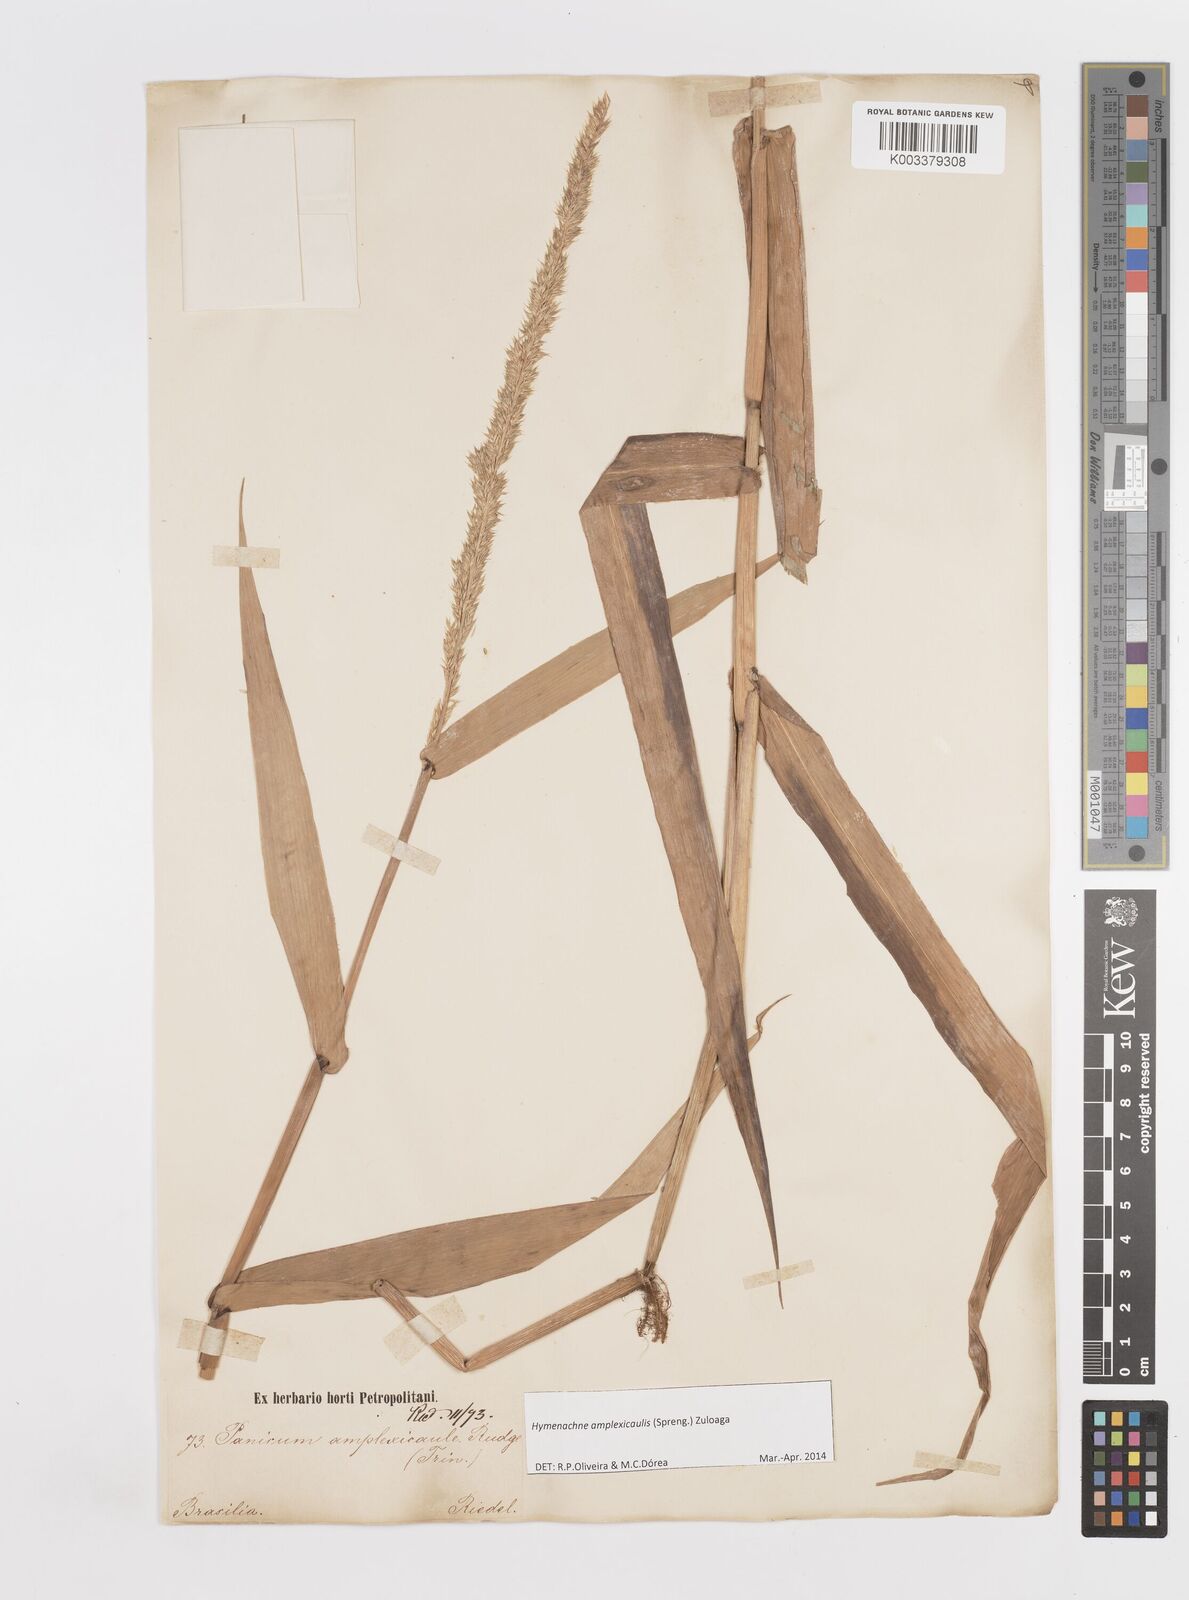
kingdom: Plantae
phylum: Tracheophyta
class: Liliopsida
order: Poales
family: Poaceae
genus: Hymenachne
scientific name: Hymenachne amplexicaulis
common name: Olive hymenachne
